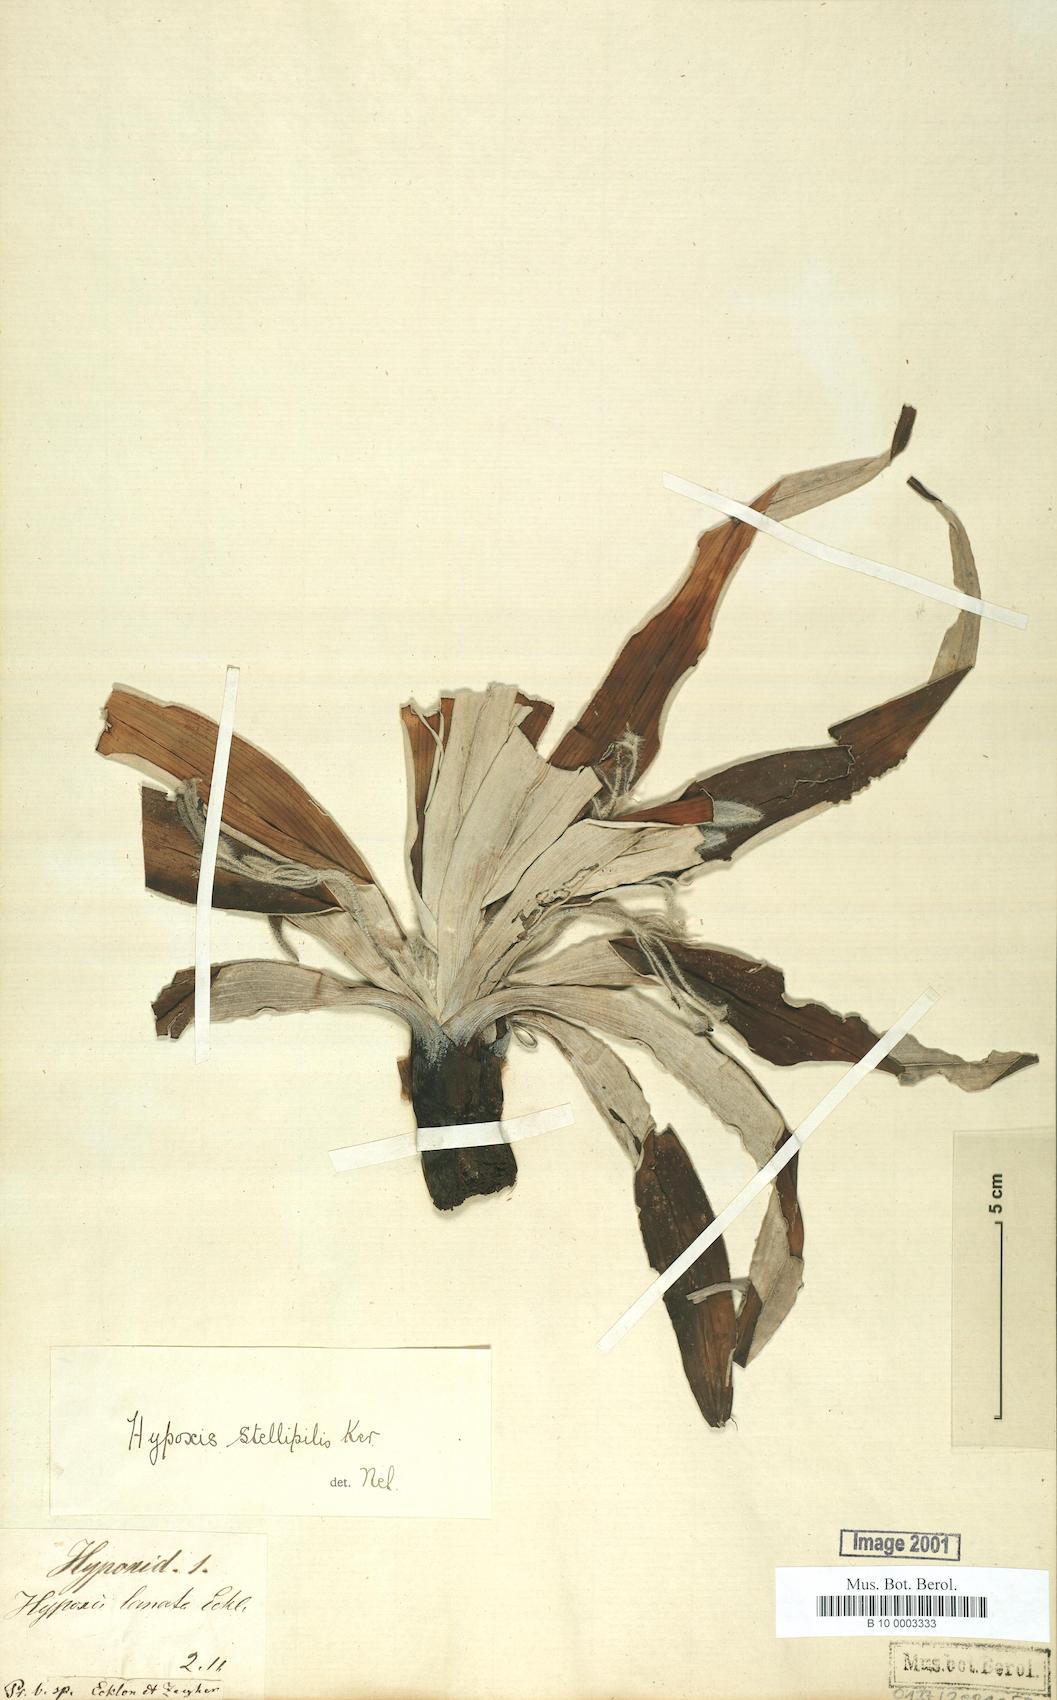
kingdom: Plantae
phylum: Tracheophyta
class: Liliopsida
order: Asparagales
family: Hypoxidaceae
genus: Hypoxis
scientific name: Hypoxis stellipilis
